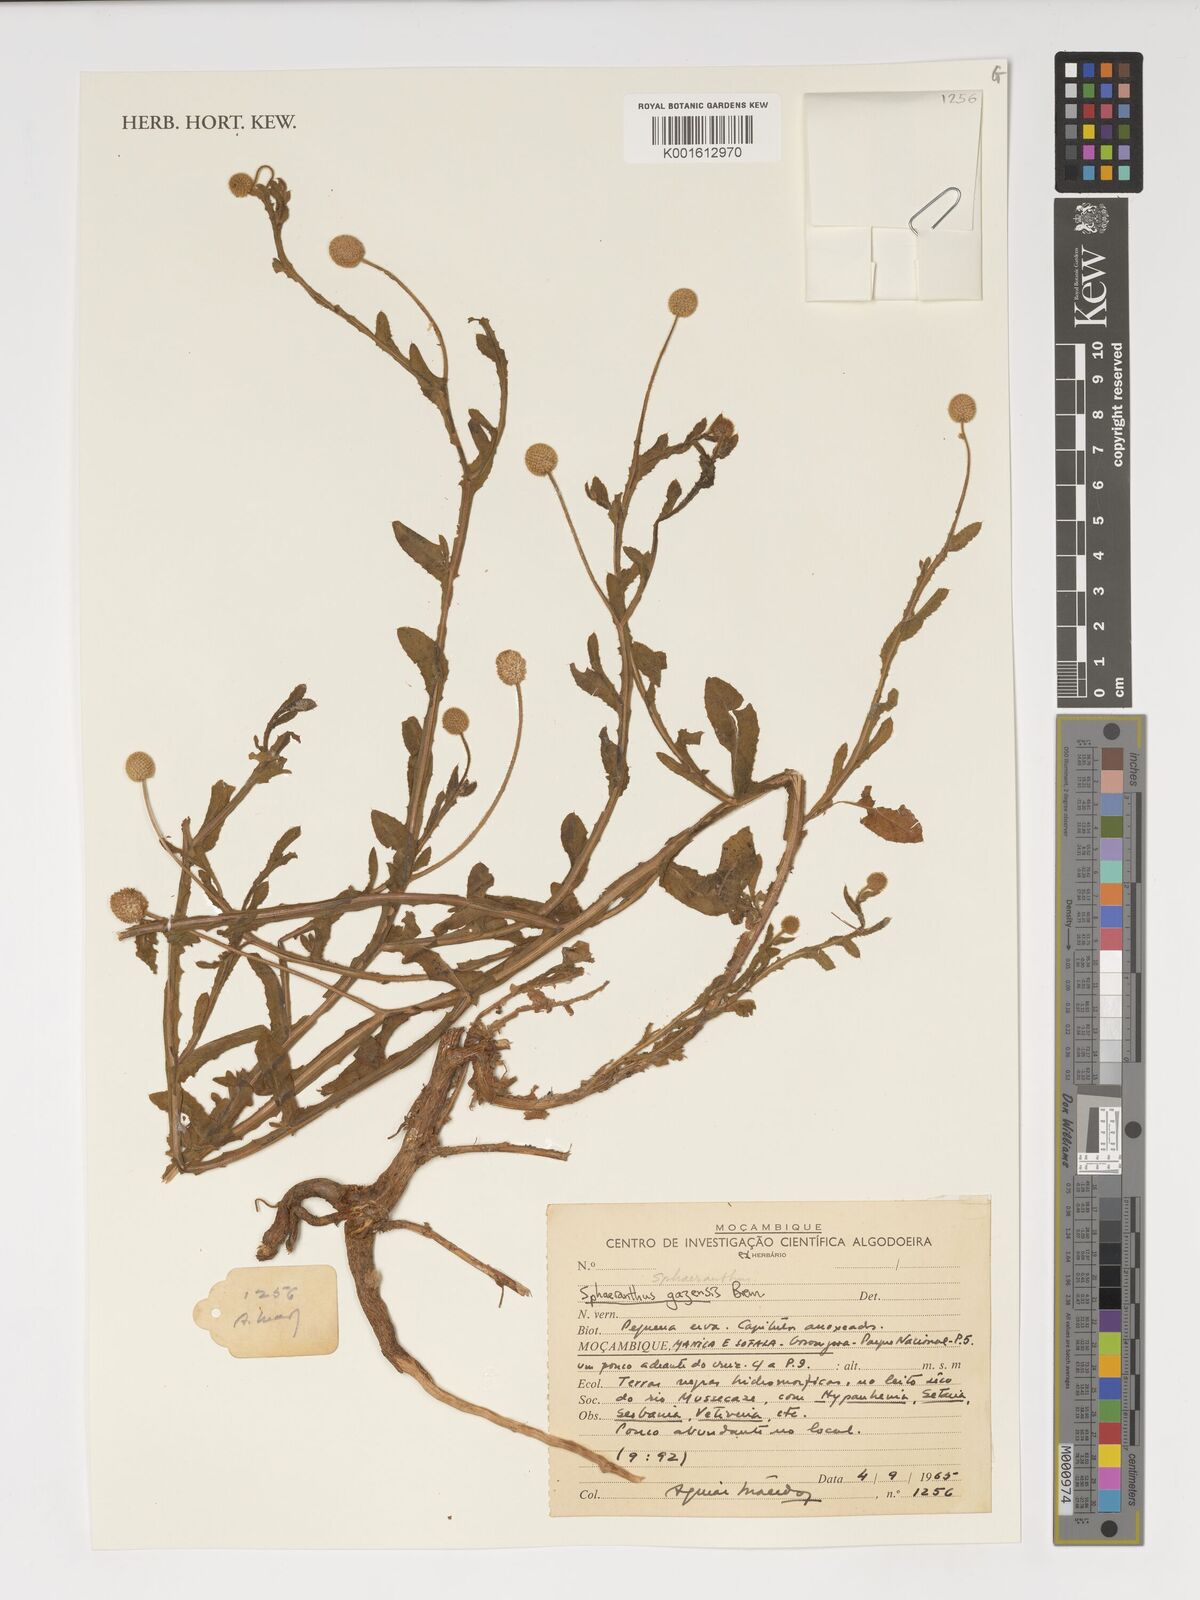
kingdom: Plantae
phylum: Tracheophyta
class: Magnoliopsida
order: Asterales
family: Asteraceae
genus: Sphaeranthus
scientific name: Sphaeranthus gazaensis
